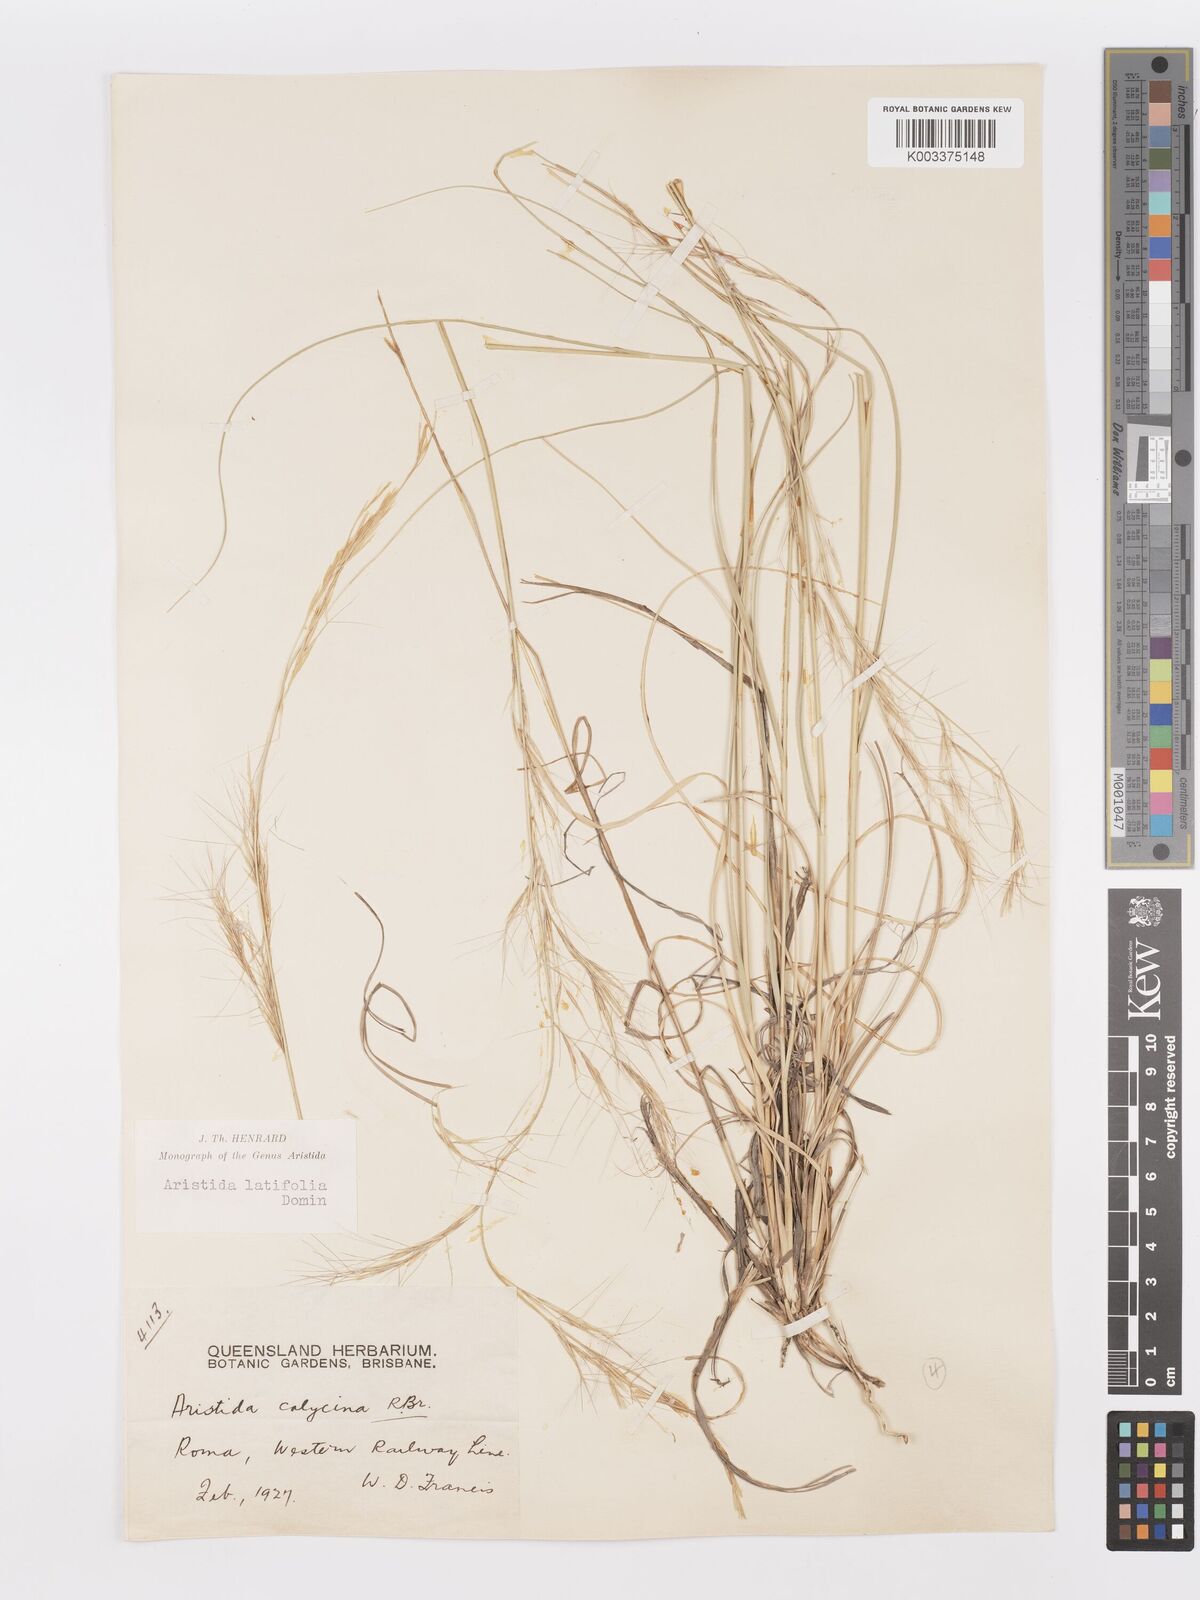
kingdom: Plantae
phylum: Tracheophyta
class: Liliopsida
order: Poales
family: Poaceae
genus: Aristida
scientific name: Aristida latifolia
